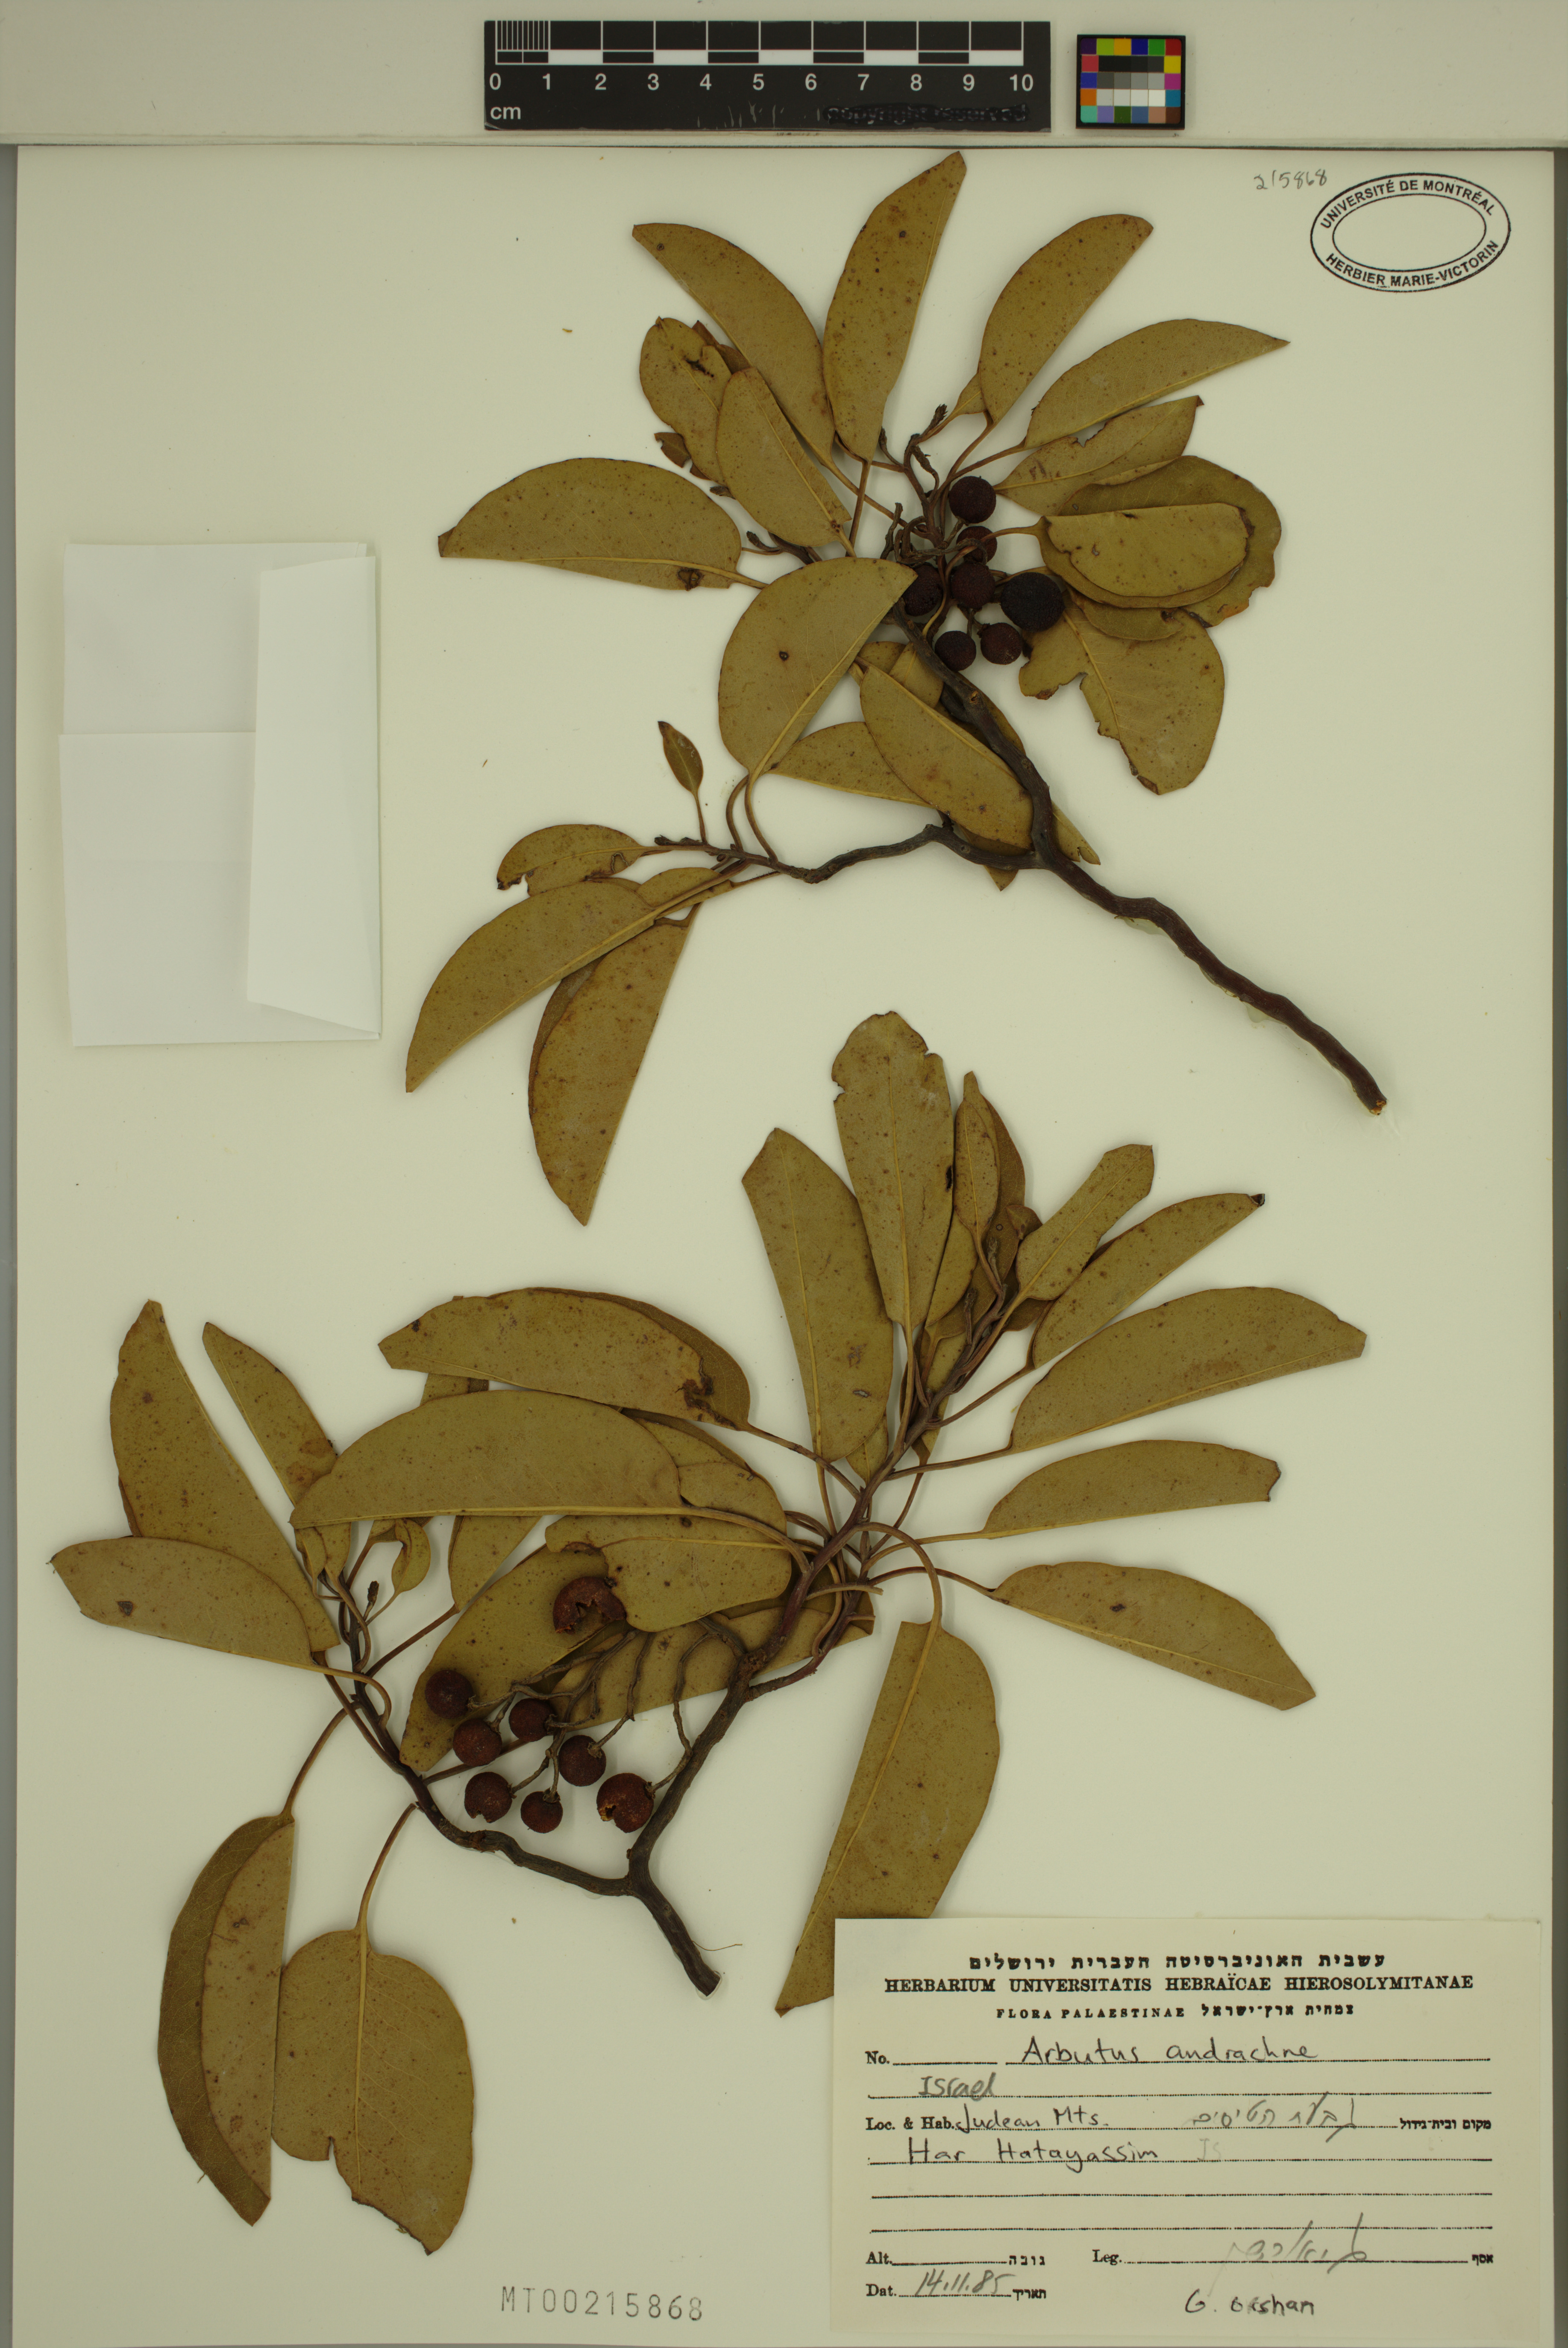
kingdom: Plantae
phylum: Tracheophyta
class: Magnoliopsida
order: Ericales
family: Ericaceae
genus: Arbutus
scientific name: Arbutus andrachne
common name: Greek strawberry tree
